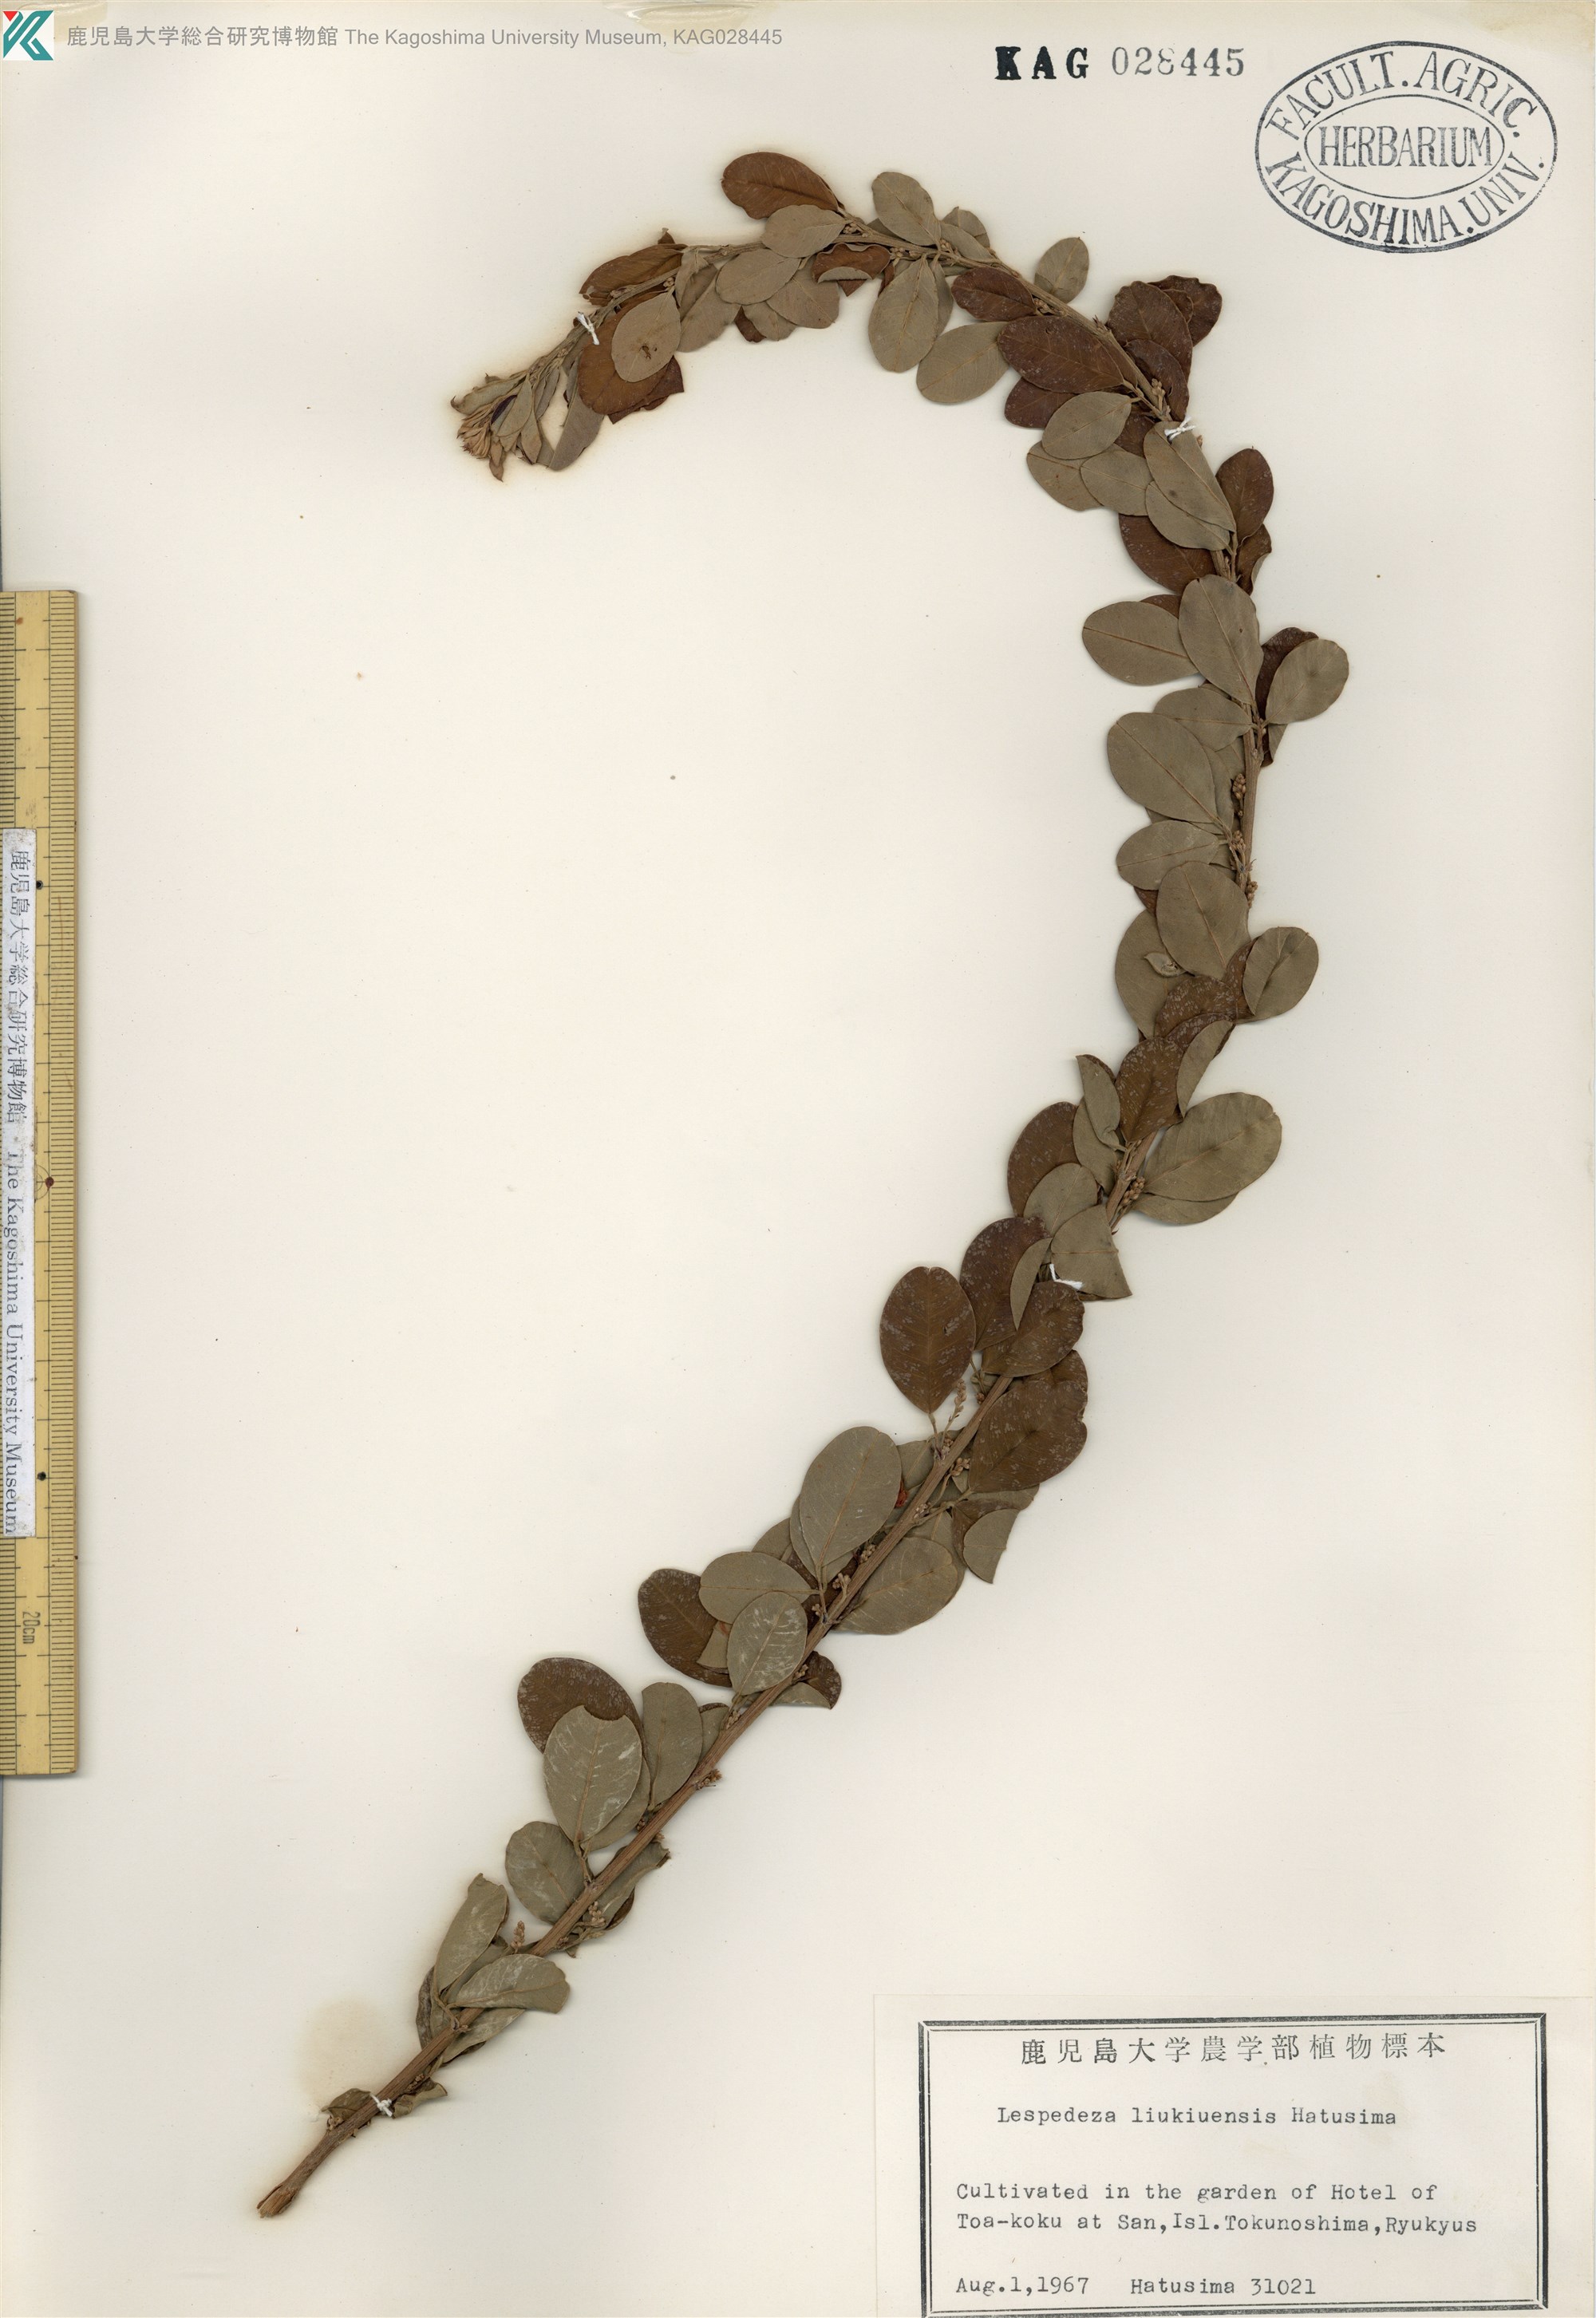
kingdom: Plantae
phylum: Tracheophyta
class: Magnoliopsida
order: Fabales
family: Fabaceae
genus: Lespedeza
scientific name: Lespedeza thunbergii
